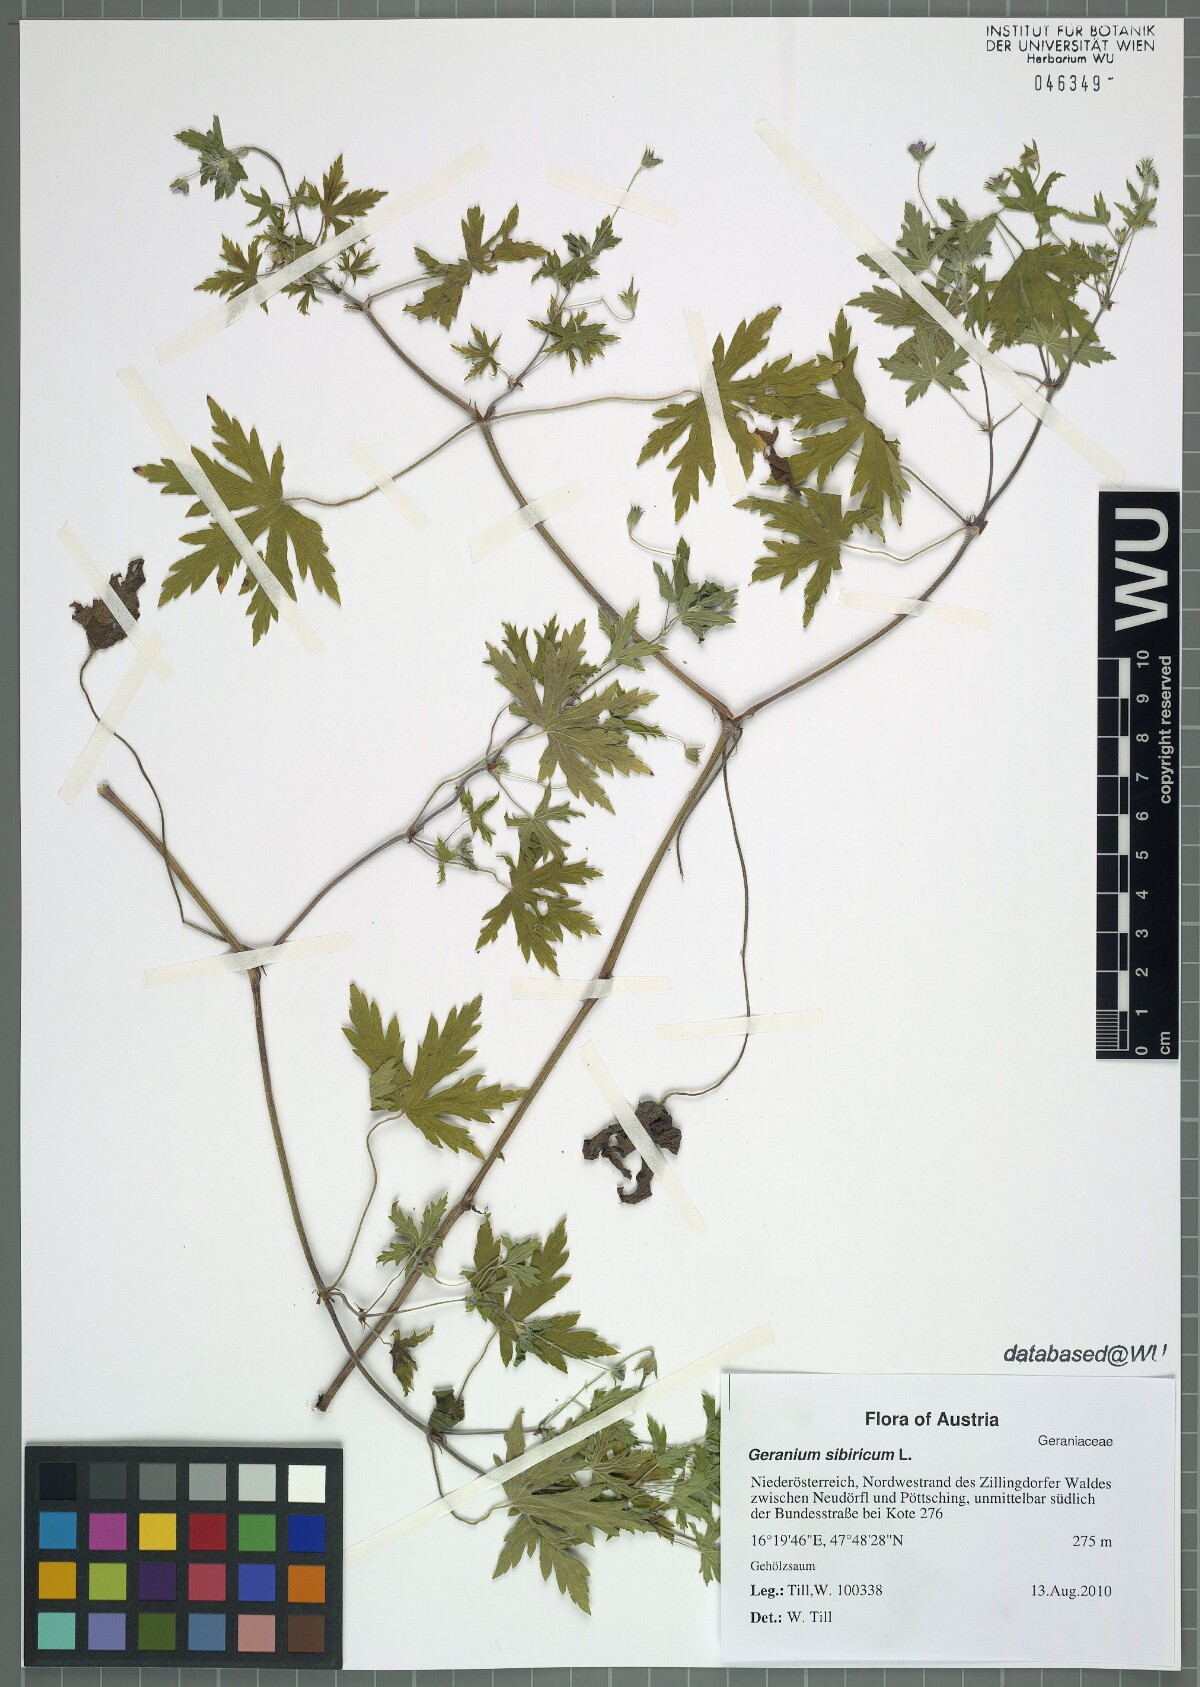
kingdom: Plantae
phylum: Tracheophyta
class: Magnoliopsida
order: Geraniales
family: Geraniaceae
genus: Geranium
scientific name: Geranium sibiricum
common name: Siberian crane's-bill
